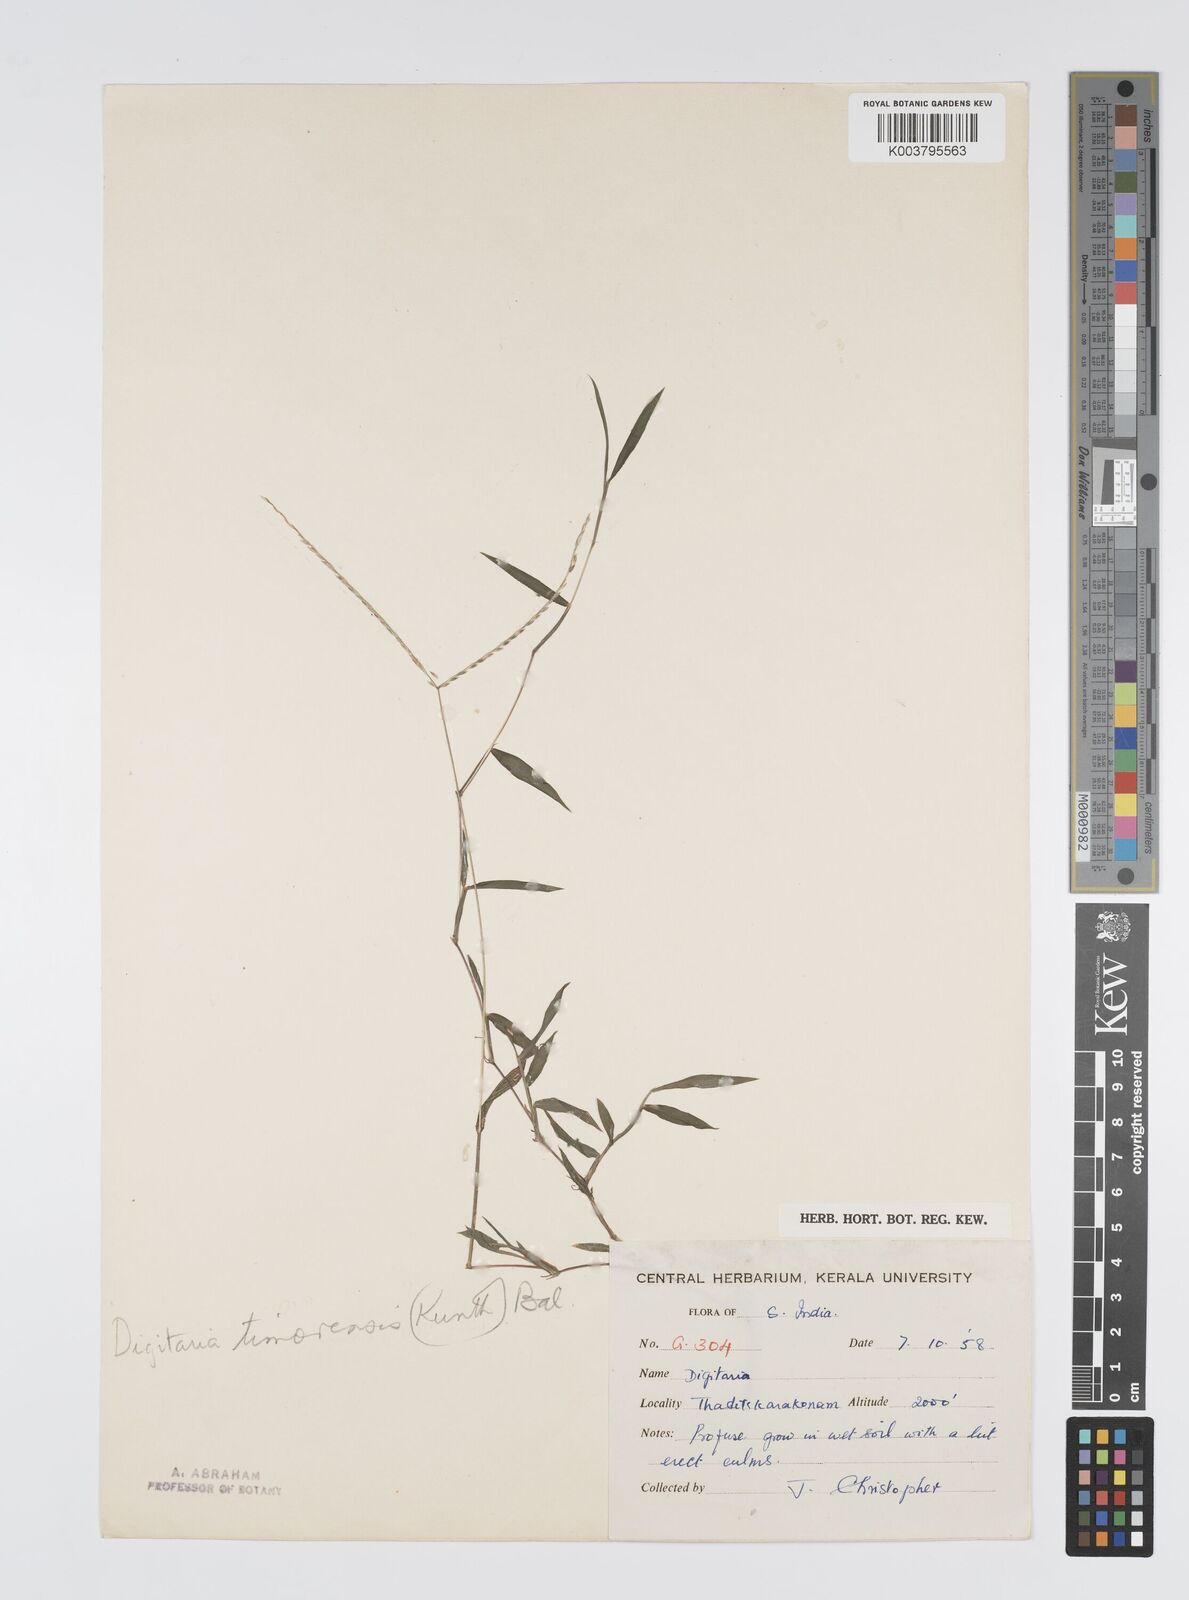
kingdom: Plantae
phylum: Tracheophyta
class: Liliopsida
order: Poales
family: Poaceae
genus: Digitaria
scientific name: Digitaria radicosa
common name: Trailing crabgrass
